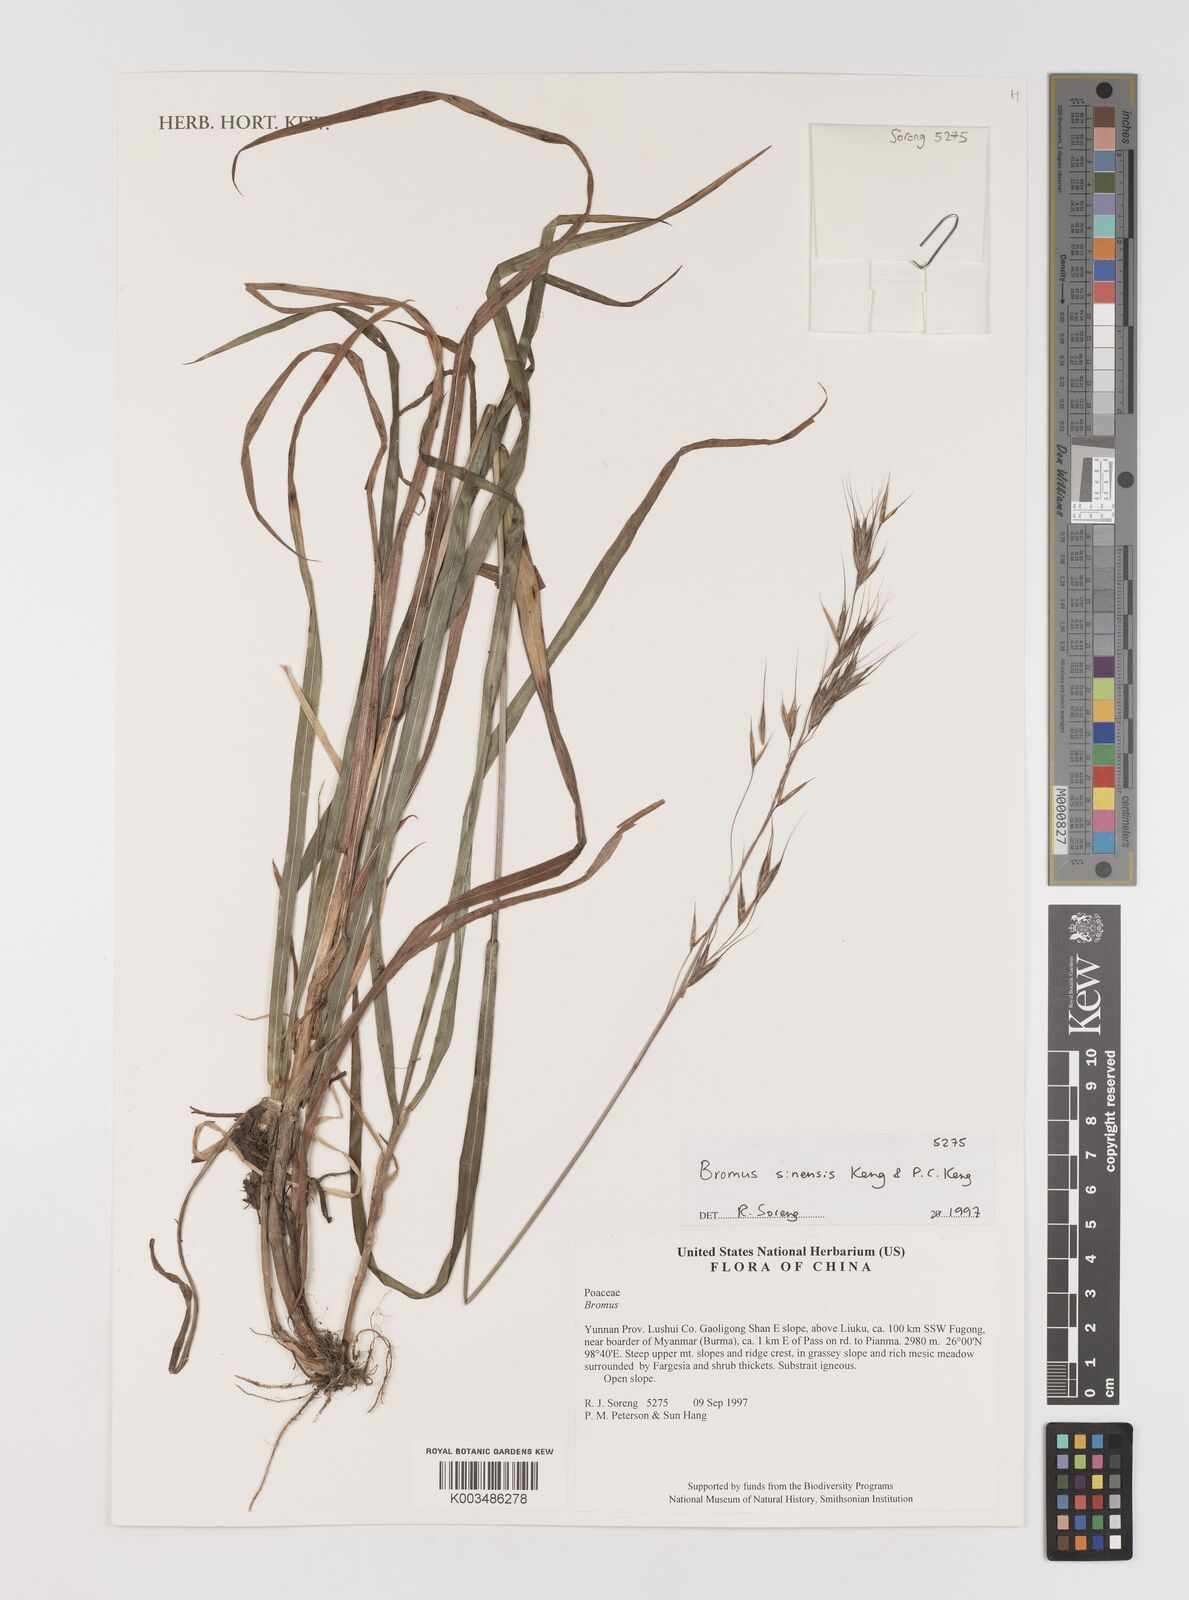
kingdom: Plantae
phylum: Tracheophyta
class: Liliopsida
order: Poales
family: Poaceae
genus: Bromus
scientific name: Bromus
